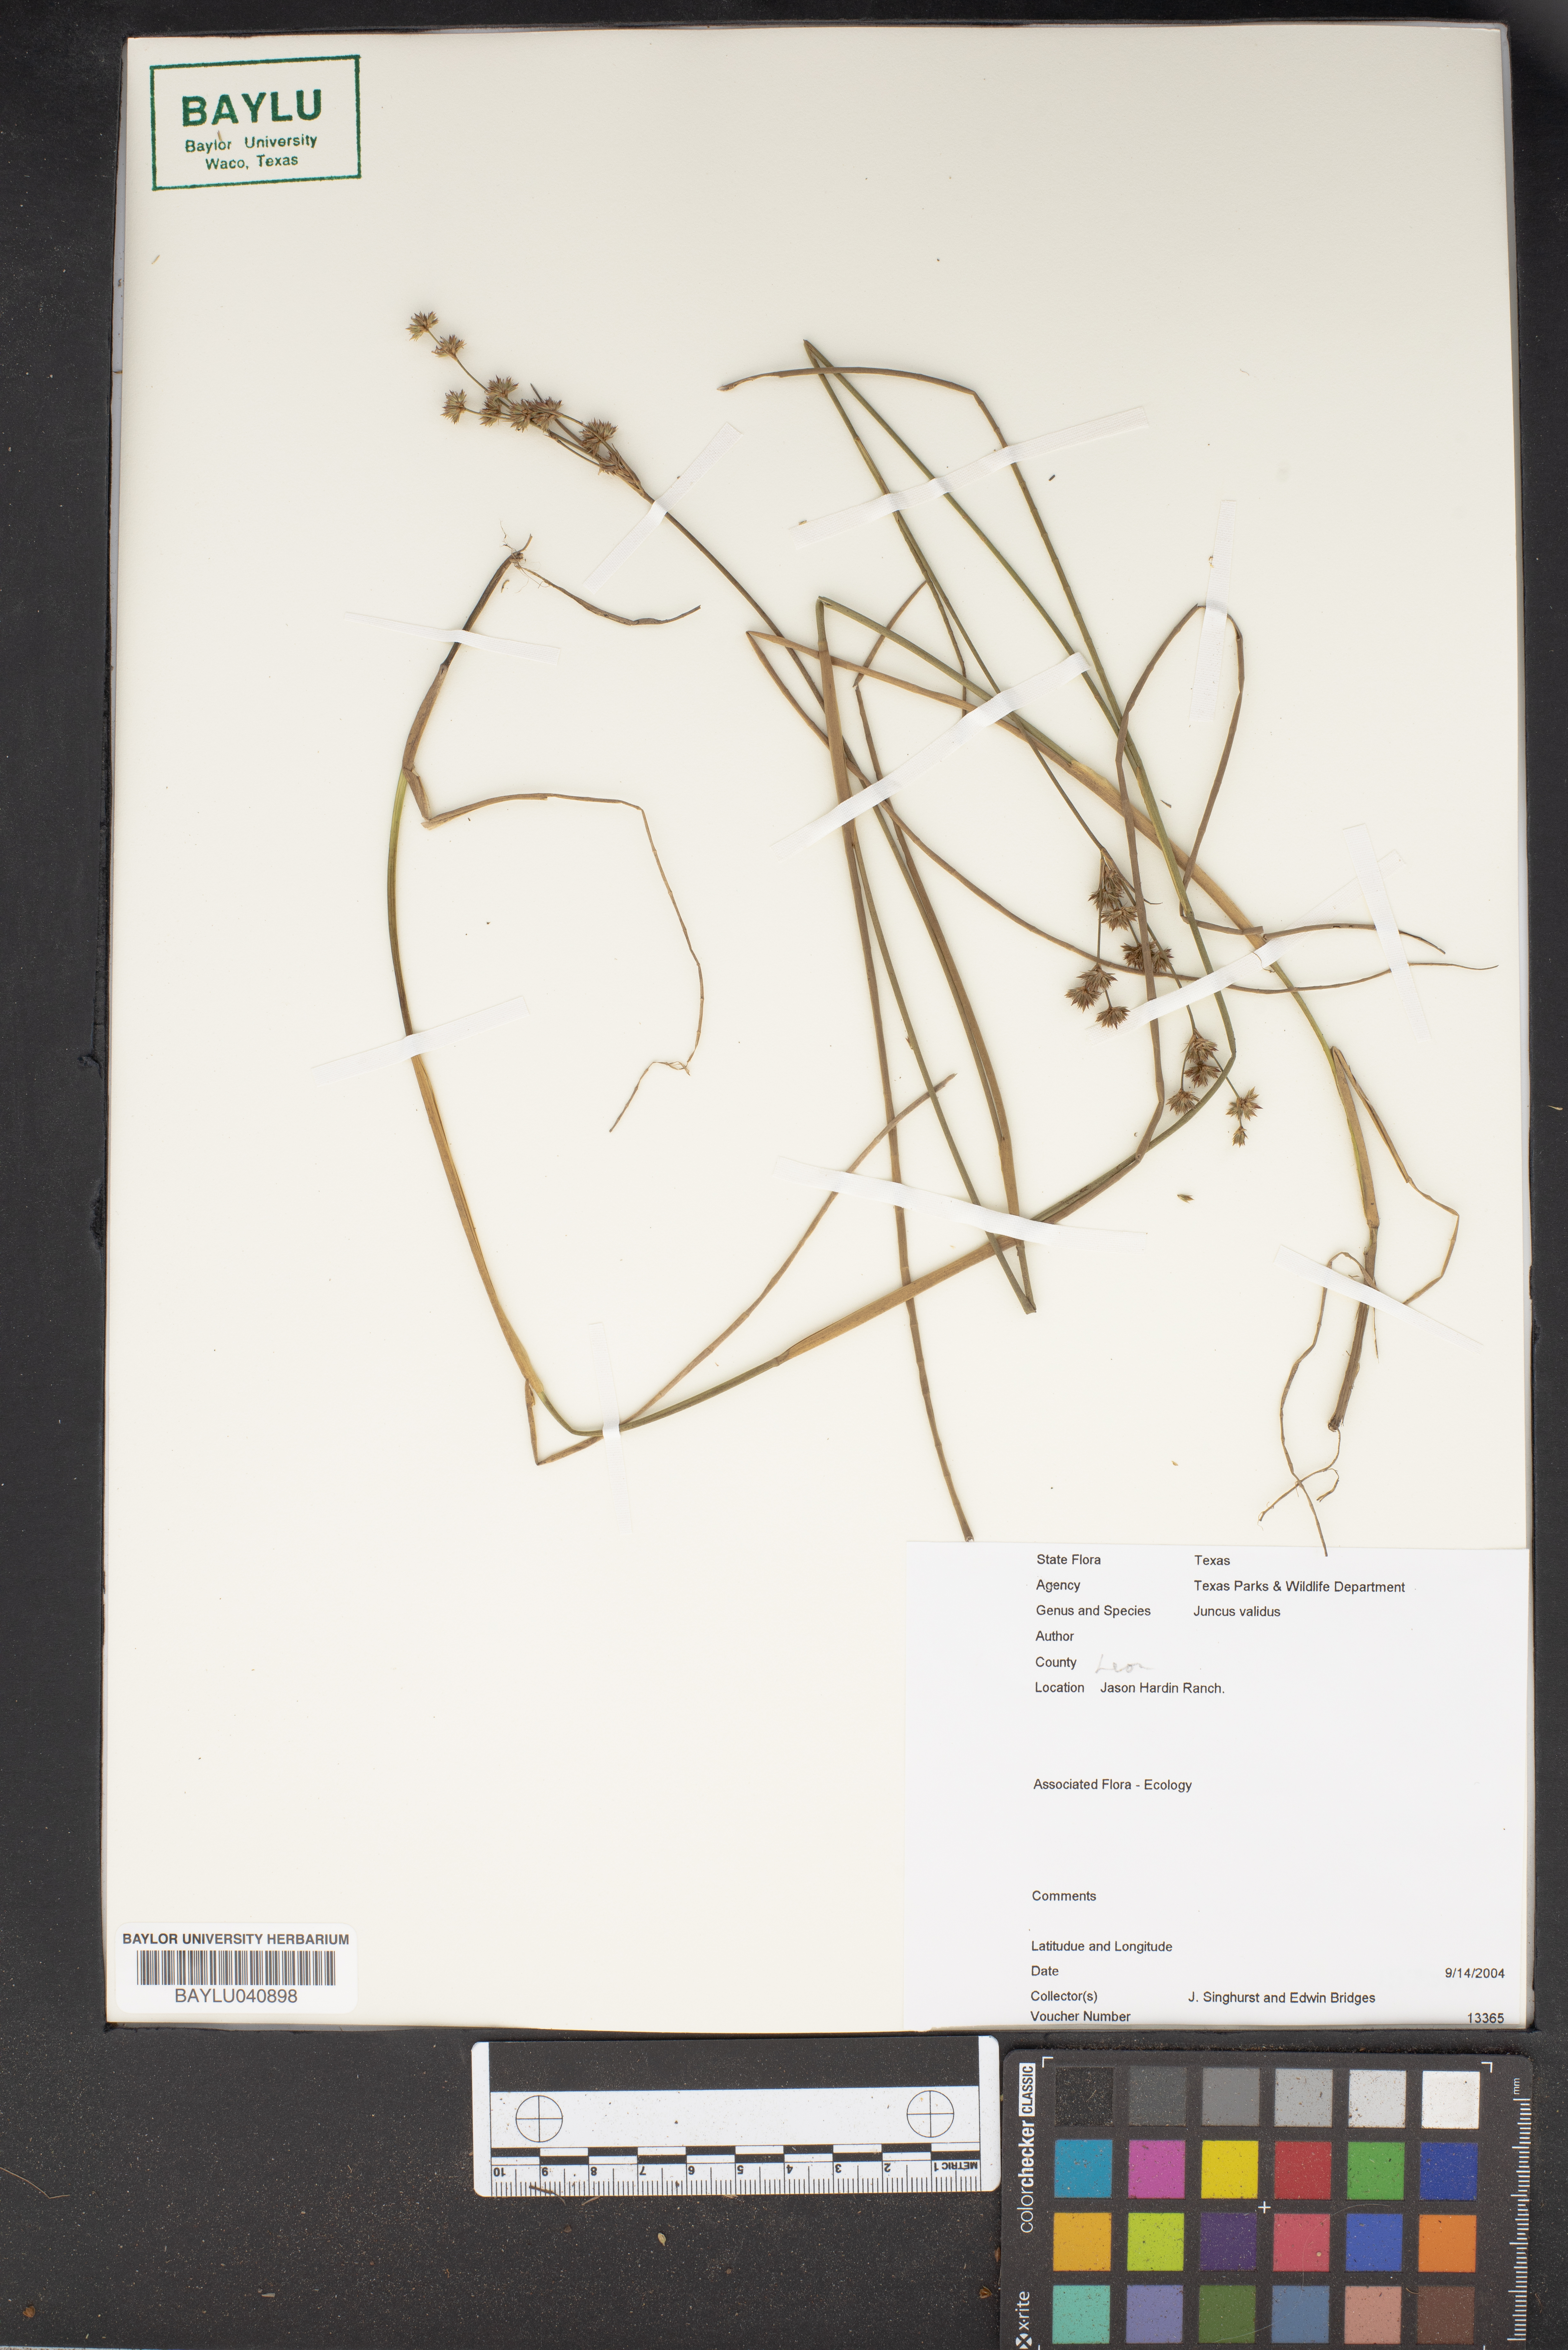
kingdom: Plantae
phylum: Tracheophyta
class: Liliopsida
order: Poales
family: Juncaceae
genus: Juncus
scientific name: Juncus validus
